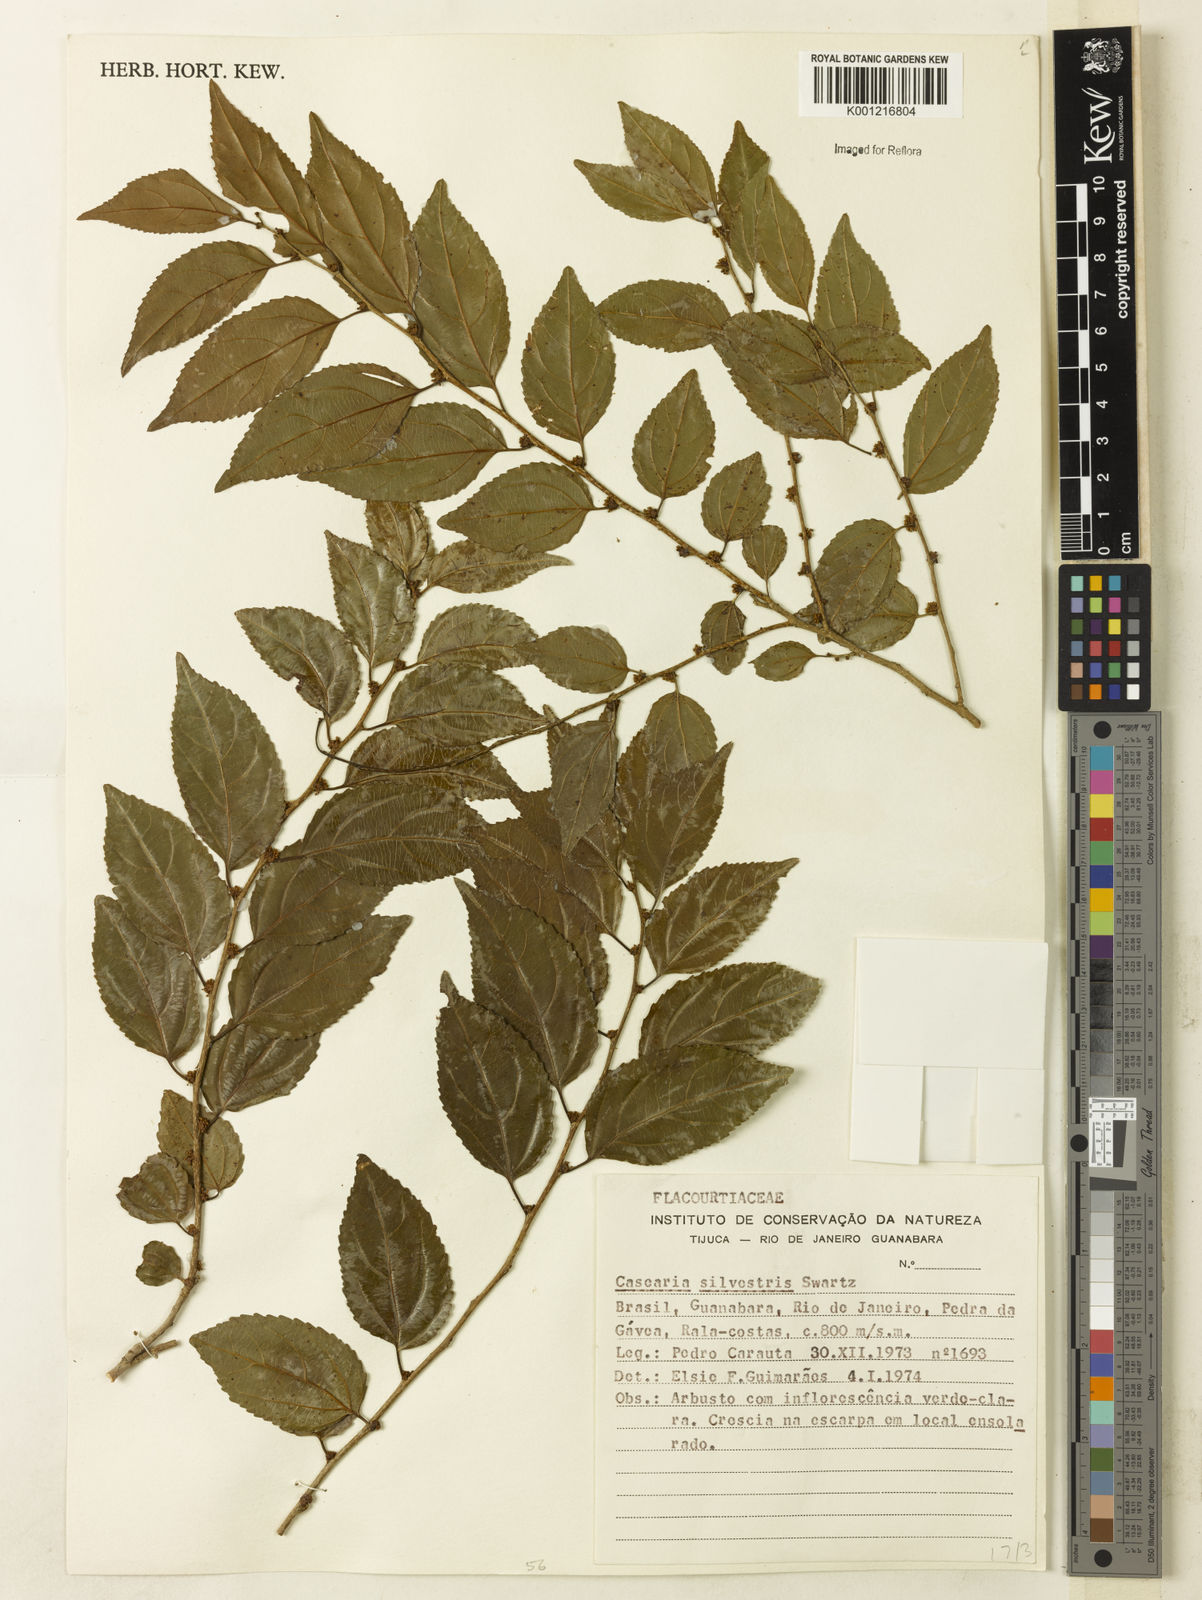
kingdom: Plantae
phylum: Tracheophyta
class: Magnoliopsida
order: Malpighiales
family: Salicaceae
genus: Casearia
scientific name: Casearia sylvestris
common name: Wild sage
